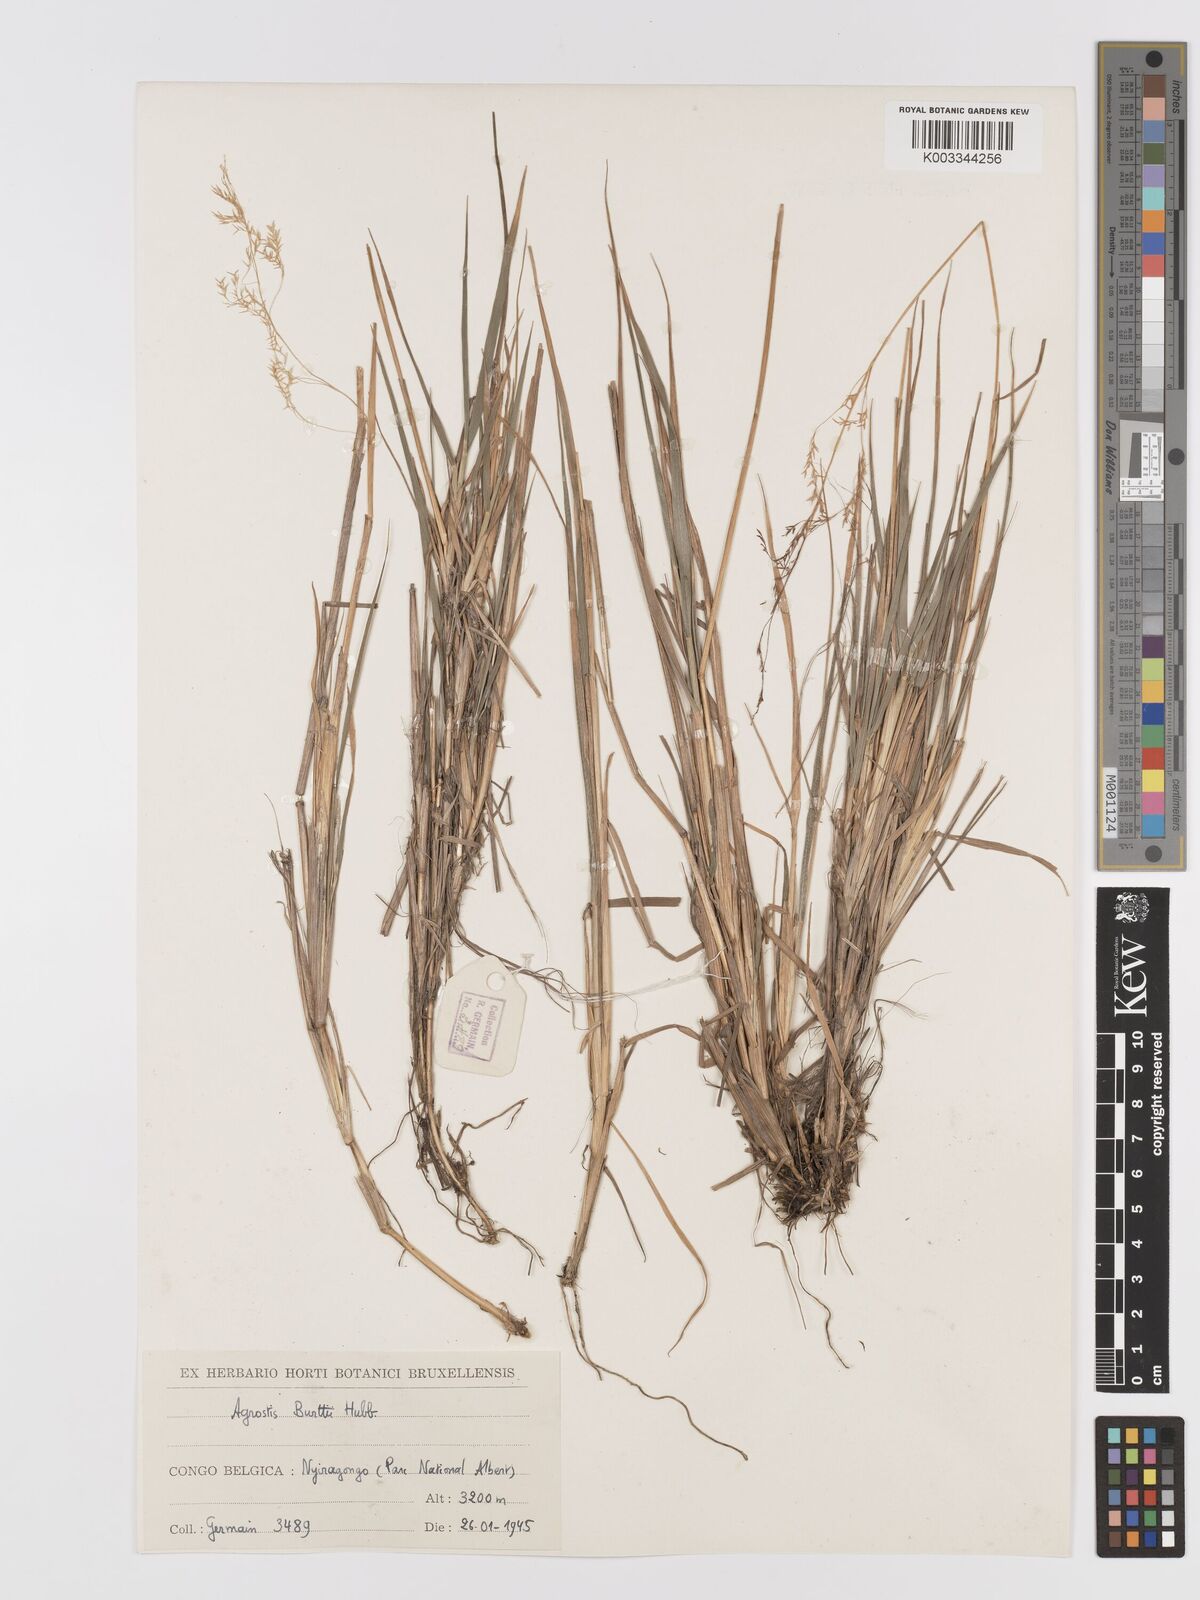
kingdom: Plantae
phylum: Tracheophyta
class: Liliopsida
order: Poales
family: Poaceae
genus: Agrostis
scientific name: Agrostis kilimandscharica
